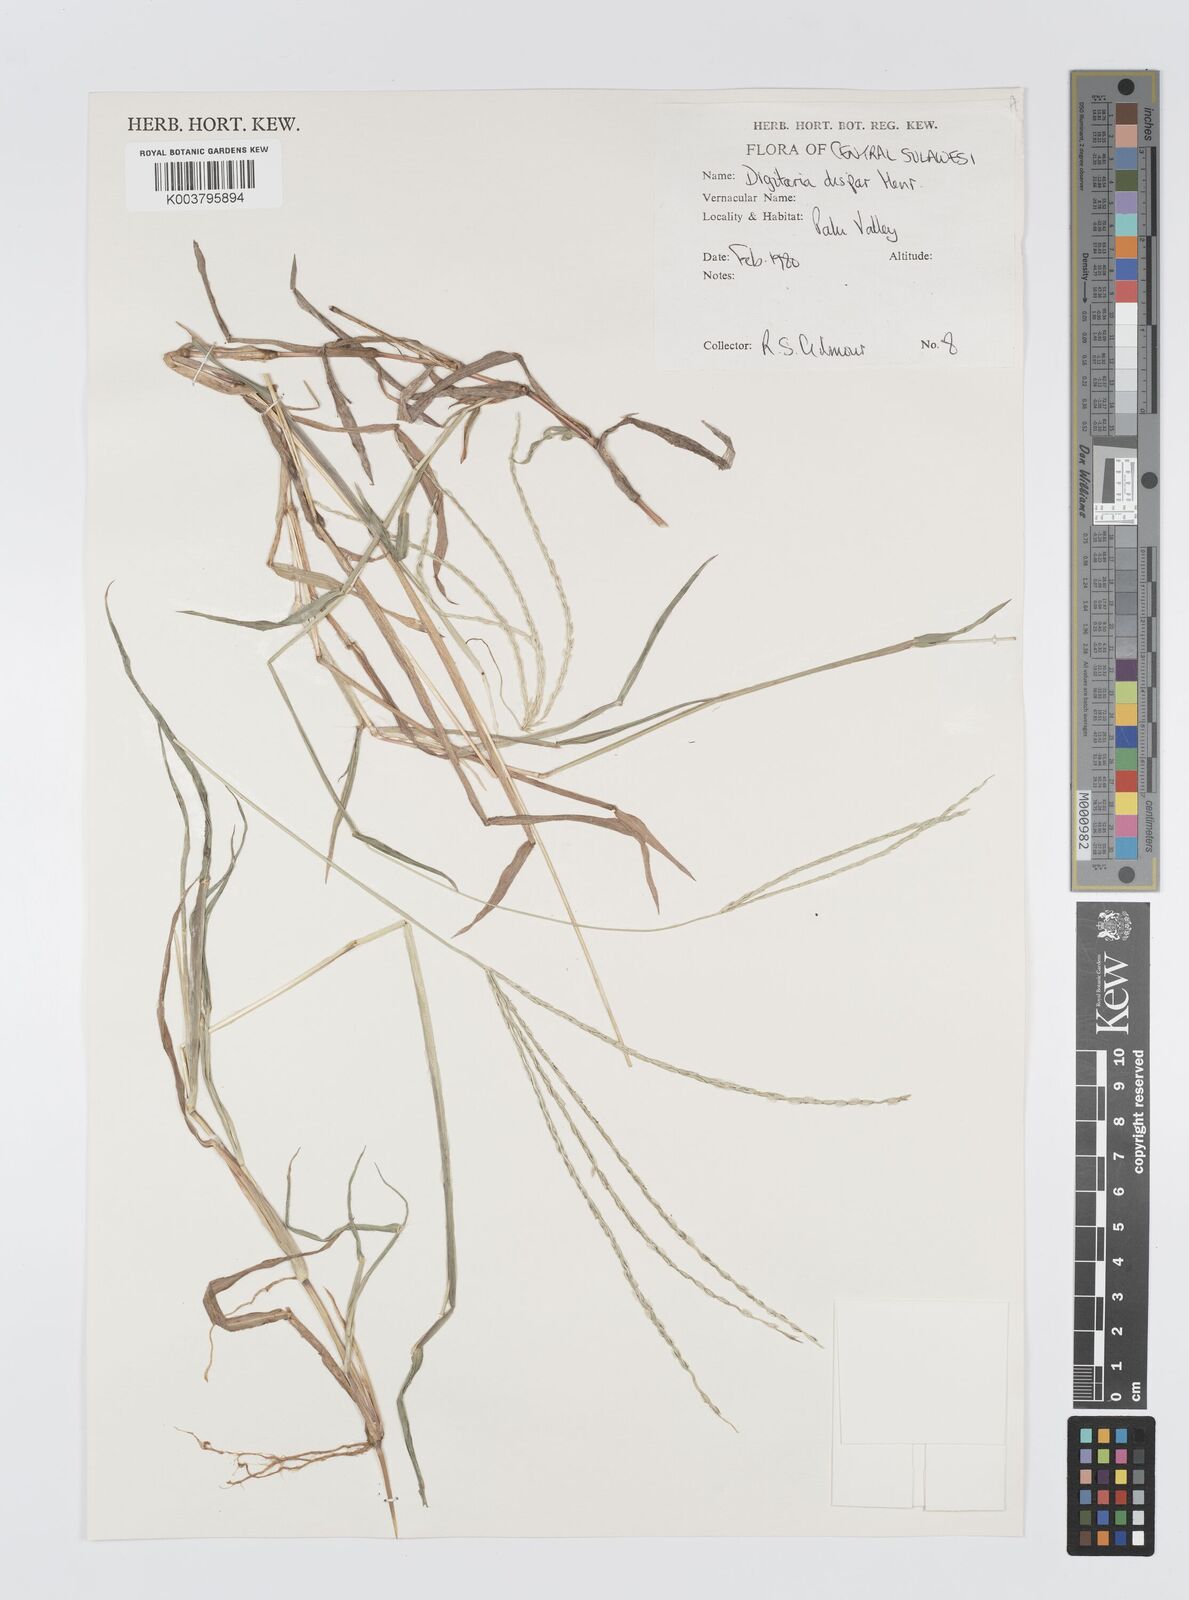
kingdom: Plantae
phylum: Tracheophyta
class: Liliopsida
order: Poales
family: Poaceae
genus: Digitaria
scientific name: Digitaria ciliaris
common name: Tropical finger-grass
